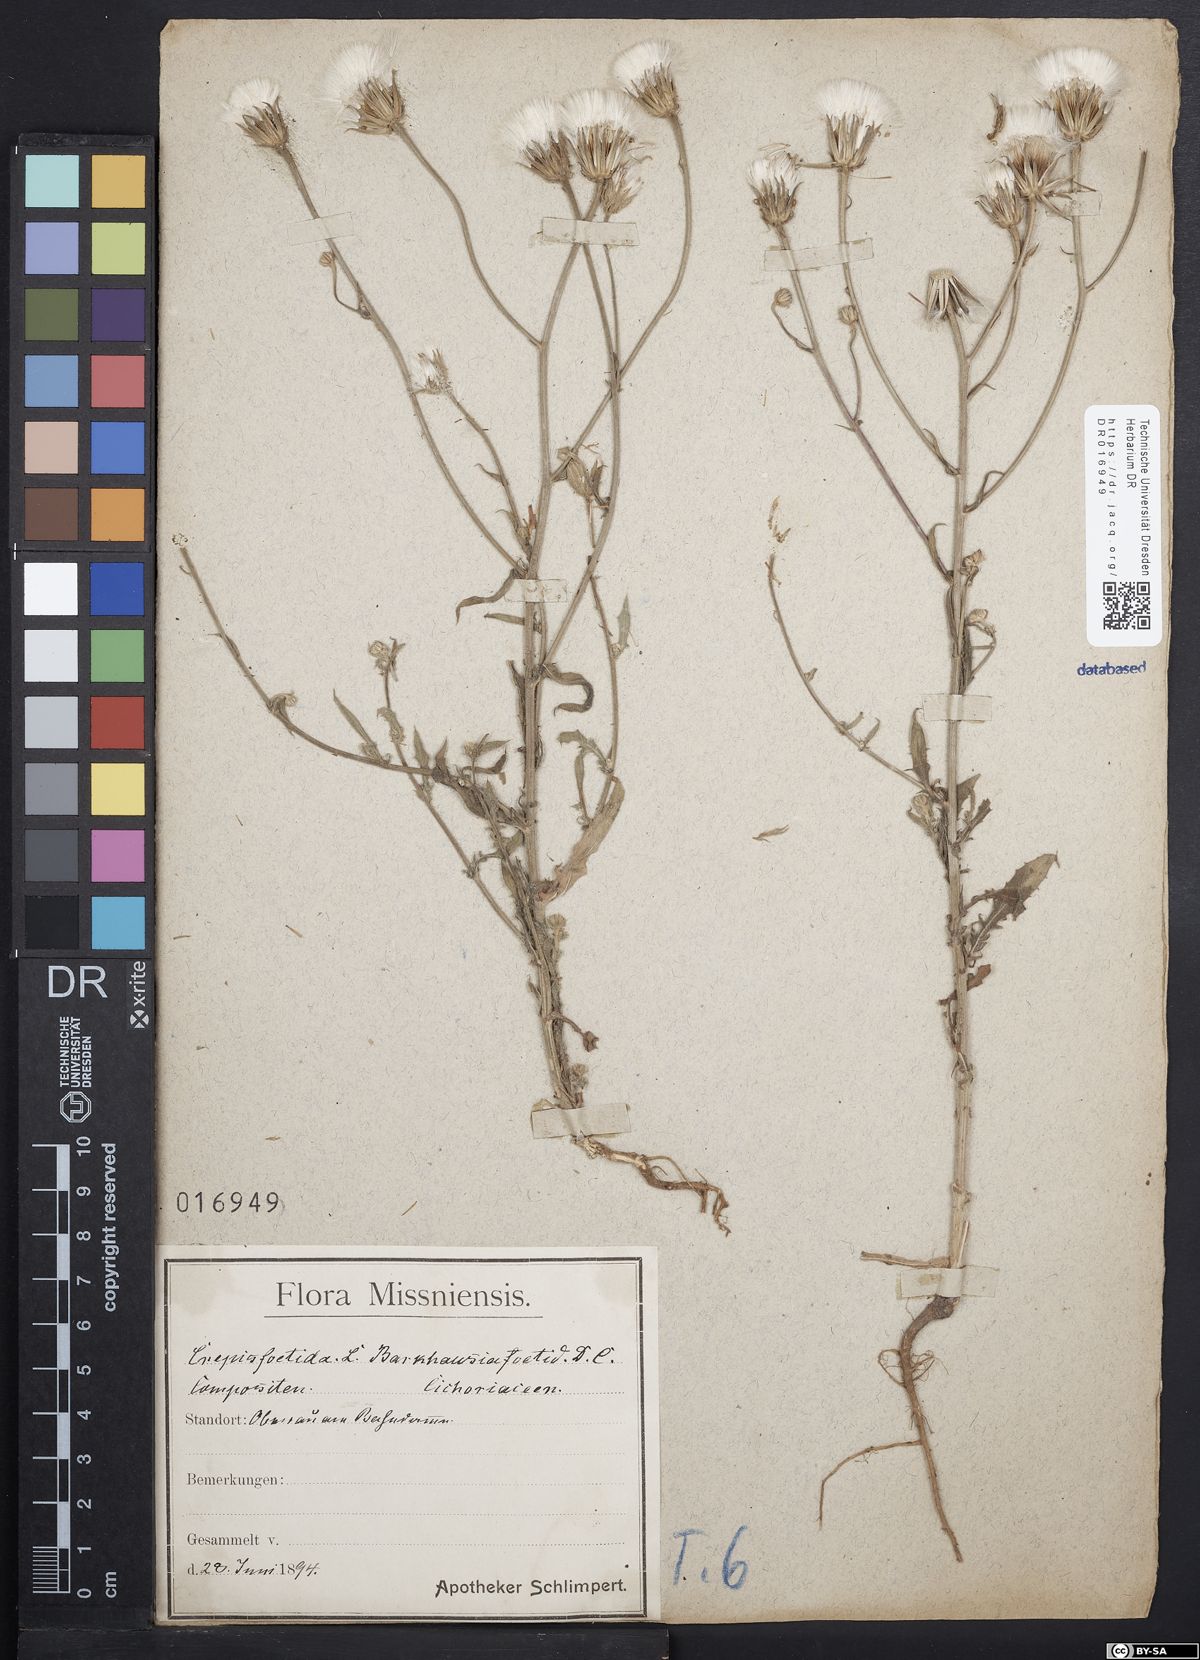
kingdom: Plantae
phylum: Tracheophyta
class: Magnoliopsida
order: Asterales
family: Asteraceae
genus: Crepis
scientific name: Crepis foetida
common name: Stinking hawk's-beard
